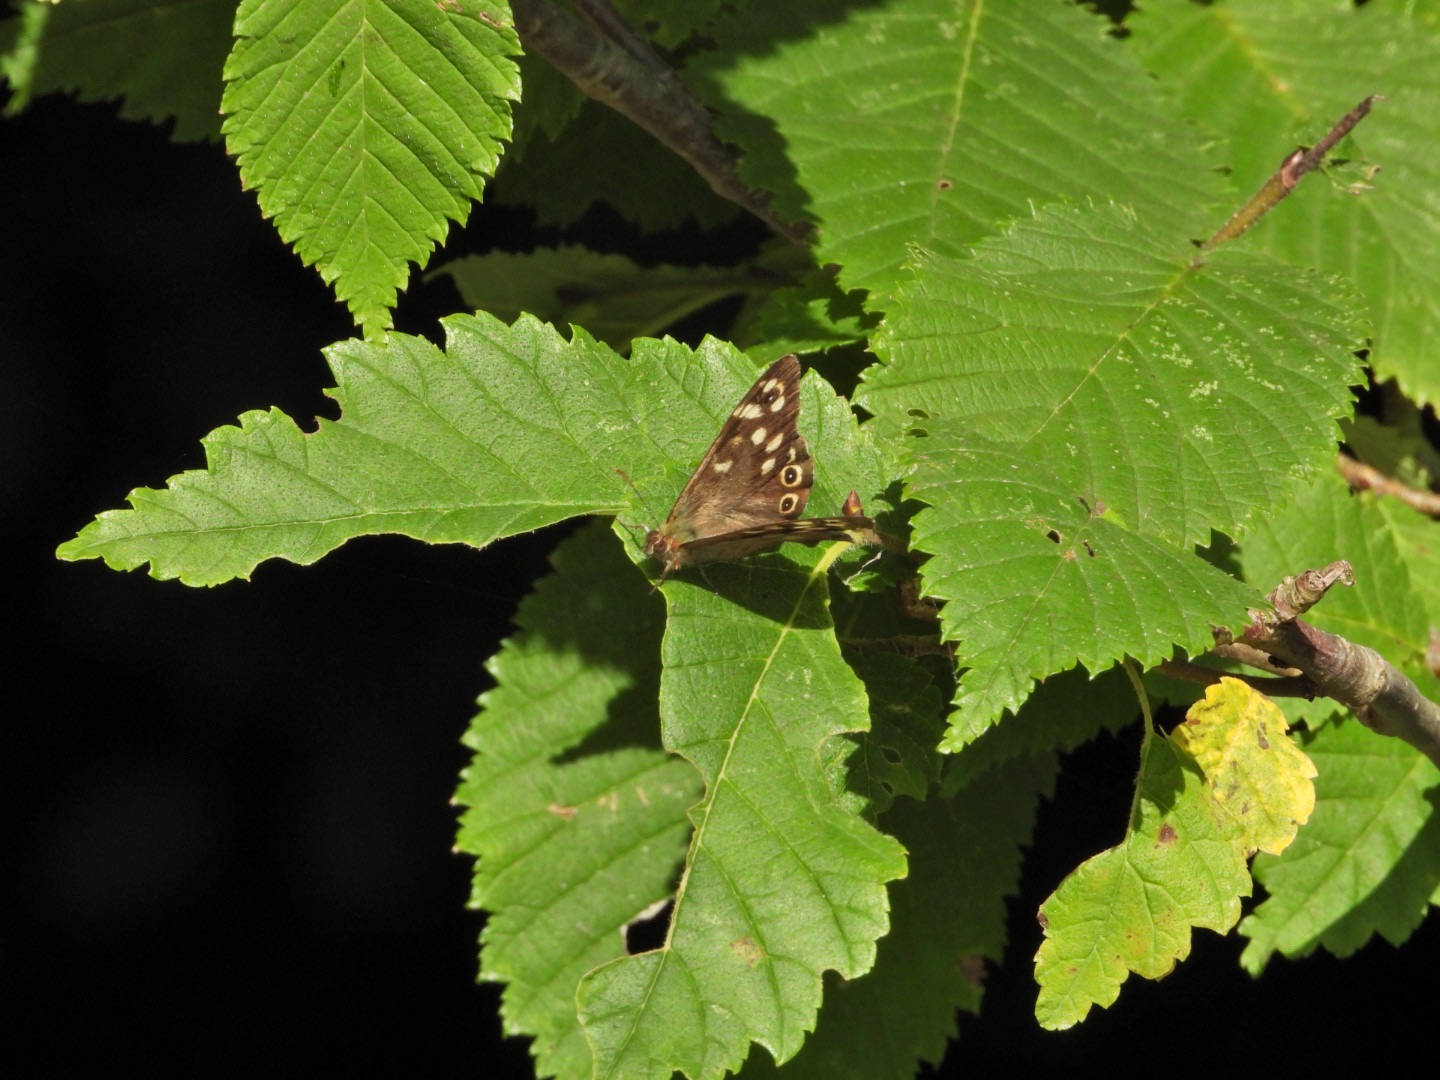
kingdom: Animalia
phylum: Arthropoda
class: Insecta
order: Lepidoptera
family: Nymphalidae
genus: Pararge
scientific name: Pararge aegeria
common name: Skovrandøje
